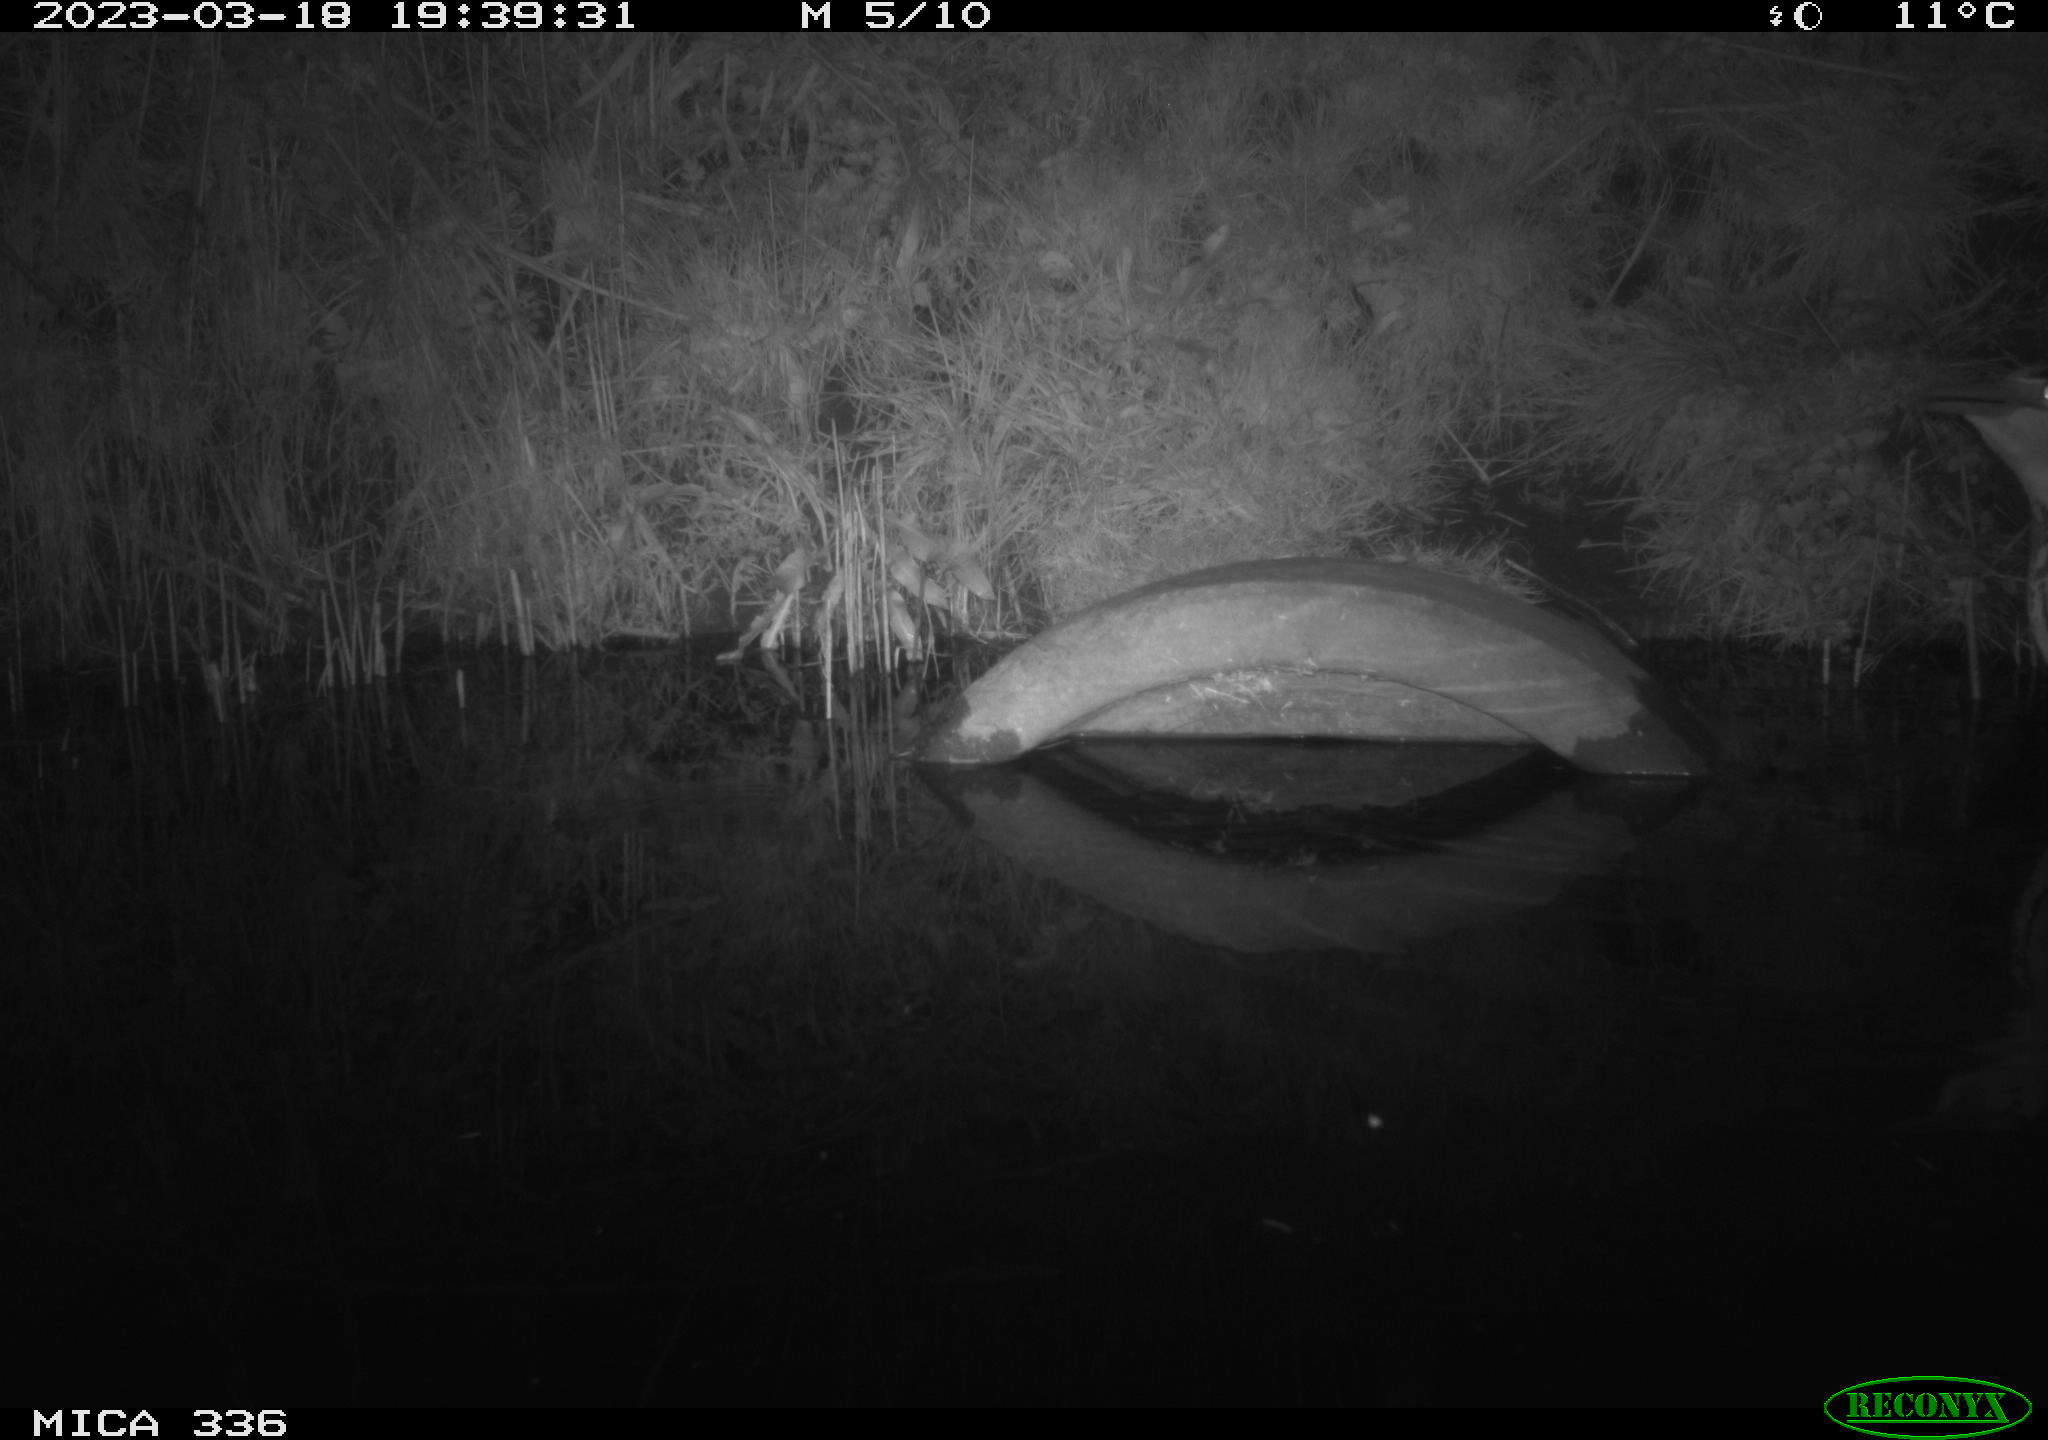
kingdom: Animalia
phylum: Chordata
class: Aves
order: Pelecaniformes
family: Ardeidae
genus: Ardea
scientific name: Ardea cinerea
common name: Grey heron
